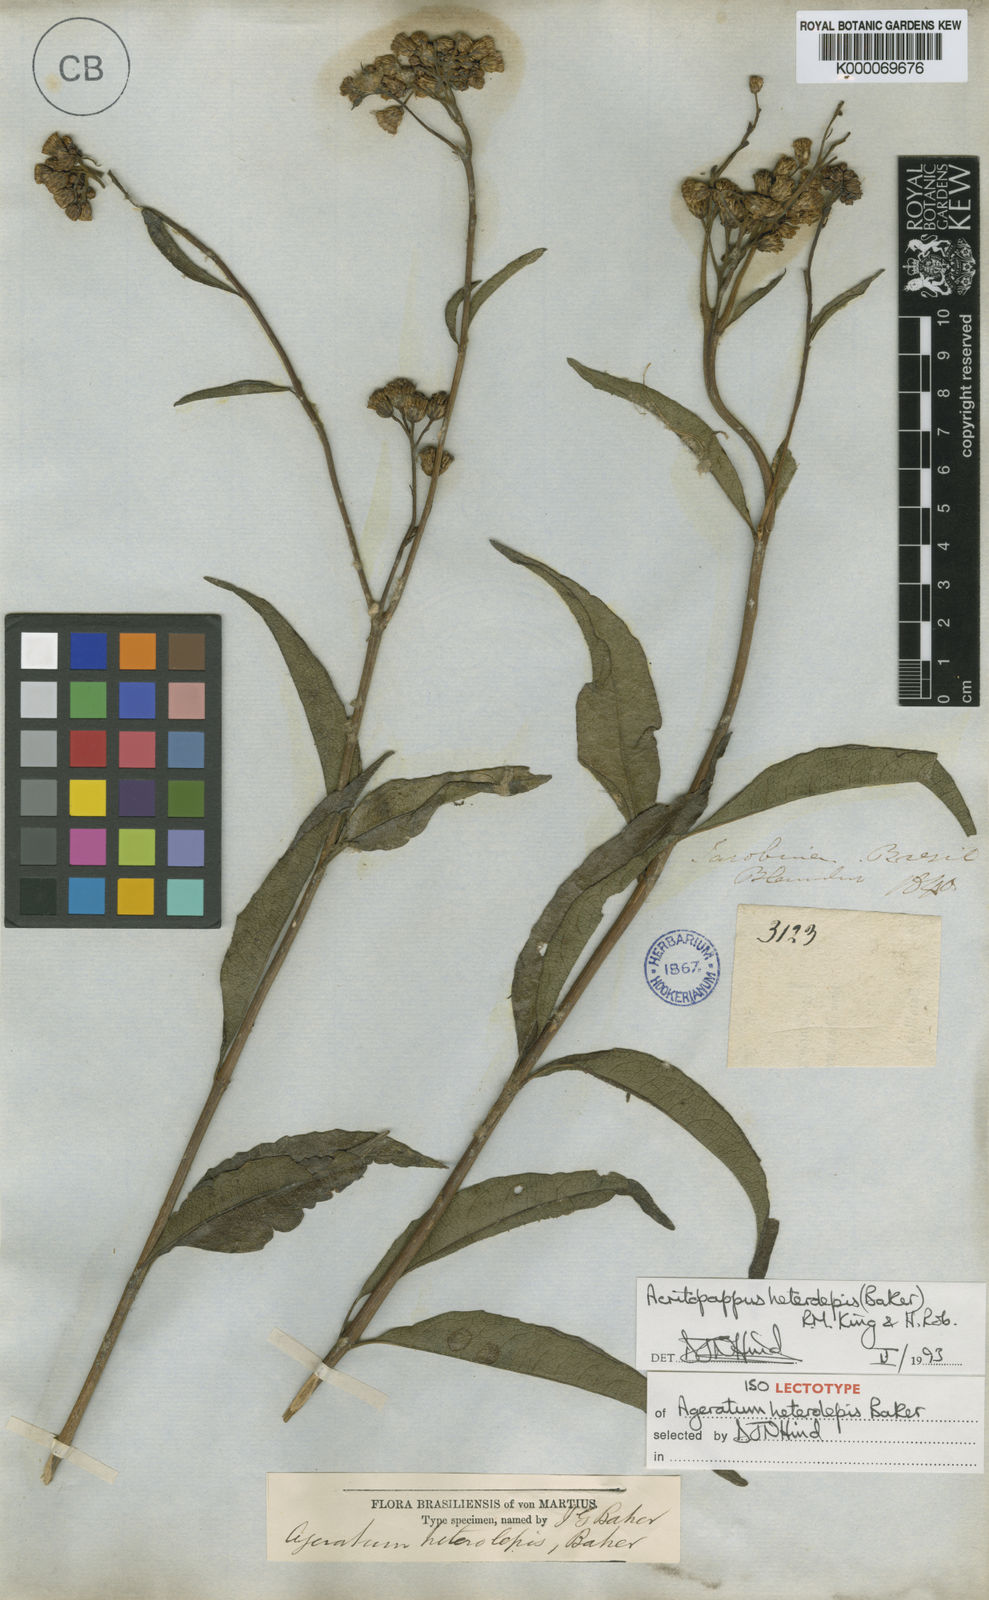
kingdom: Plantae
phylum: Tracheophyta
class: Magnoliopsida
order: Asterales
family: Asteraceae
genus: Acritopappus
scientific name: Acritopappus heterolepis
